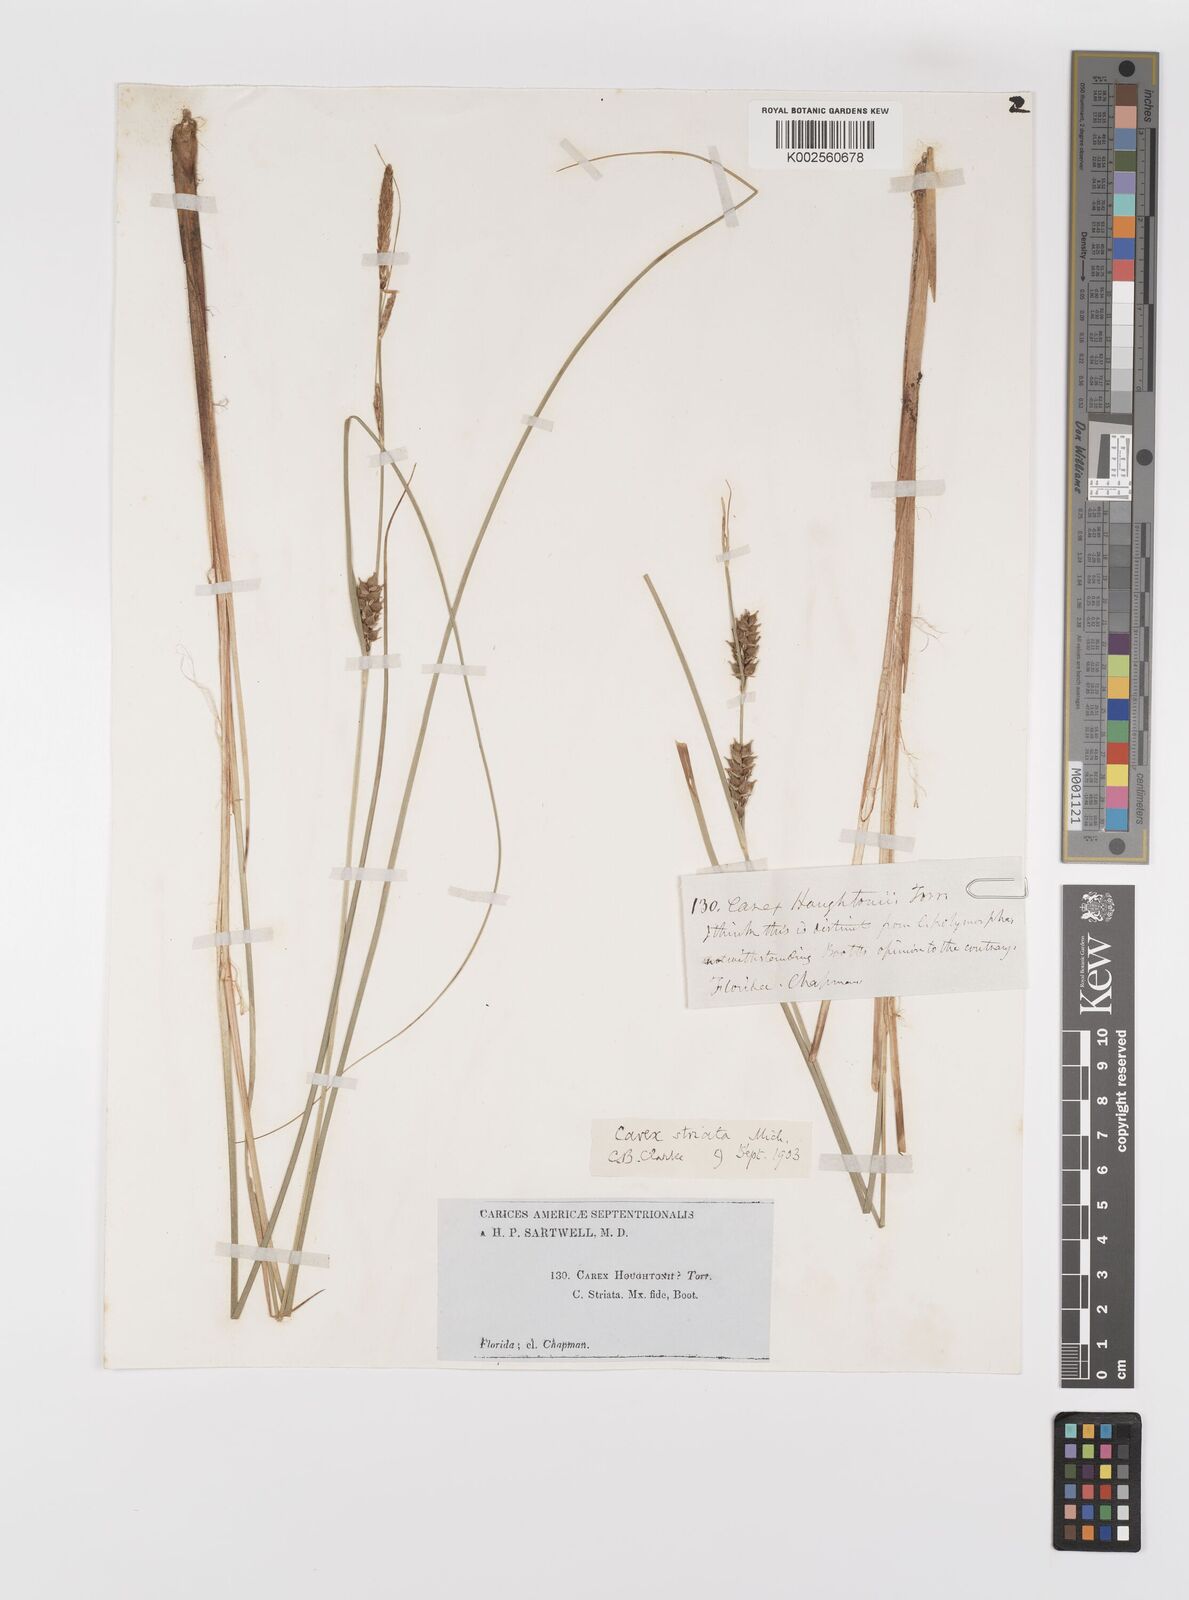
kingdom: Plantae
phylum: Tracheophyta
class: Liliopsida
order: Poales
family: Cyperaceae
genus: Carex
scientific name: Carex striata
